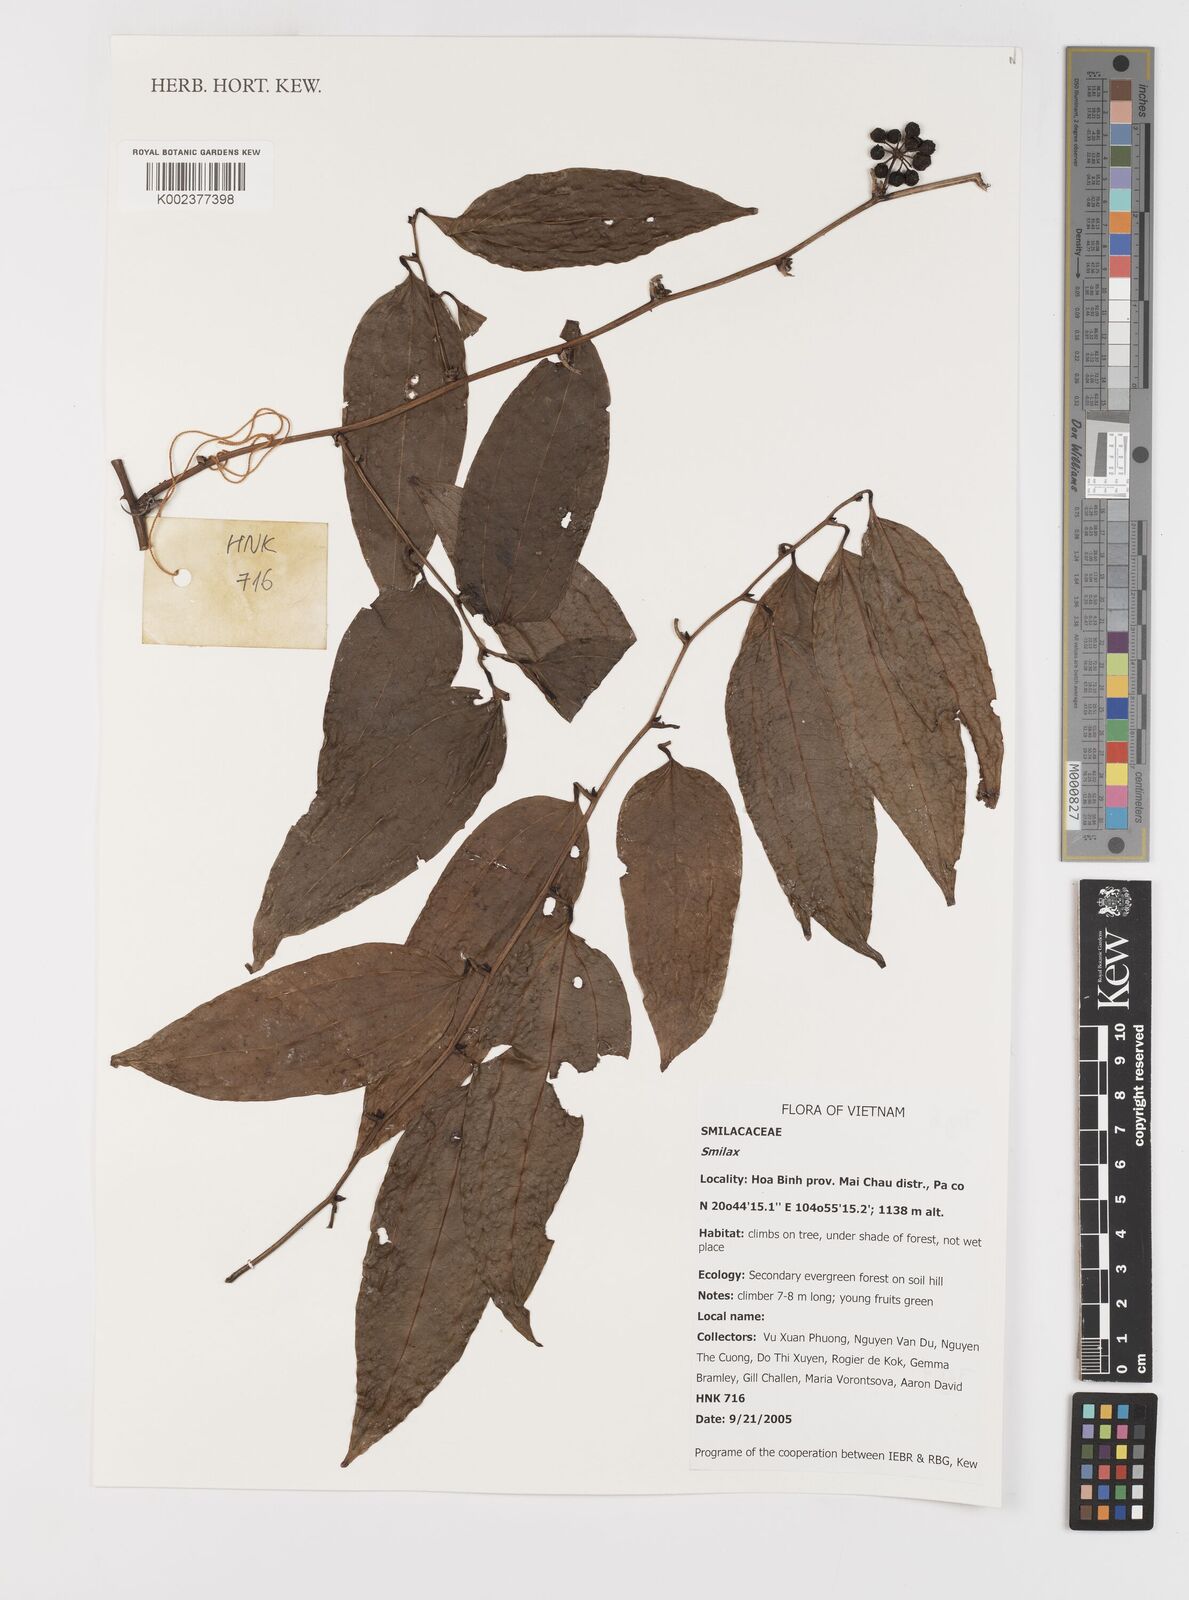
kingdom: Plantae
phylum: Tracheophyta
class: Liliopsida
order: Liliales
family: Smilacaceae
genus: Smilax
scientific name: Smilax
